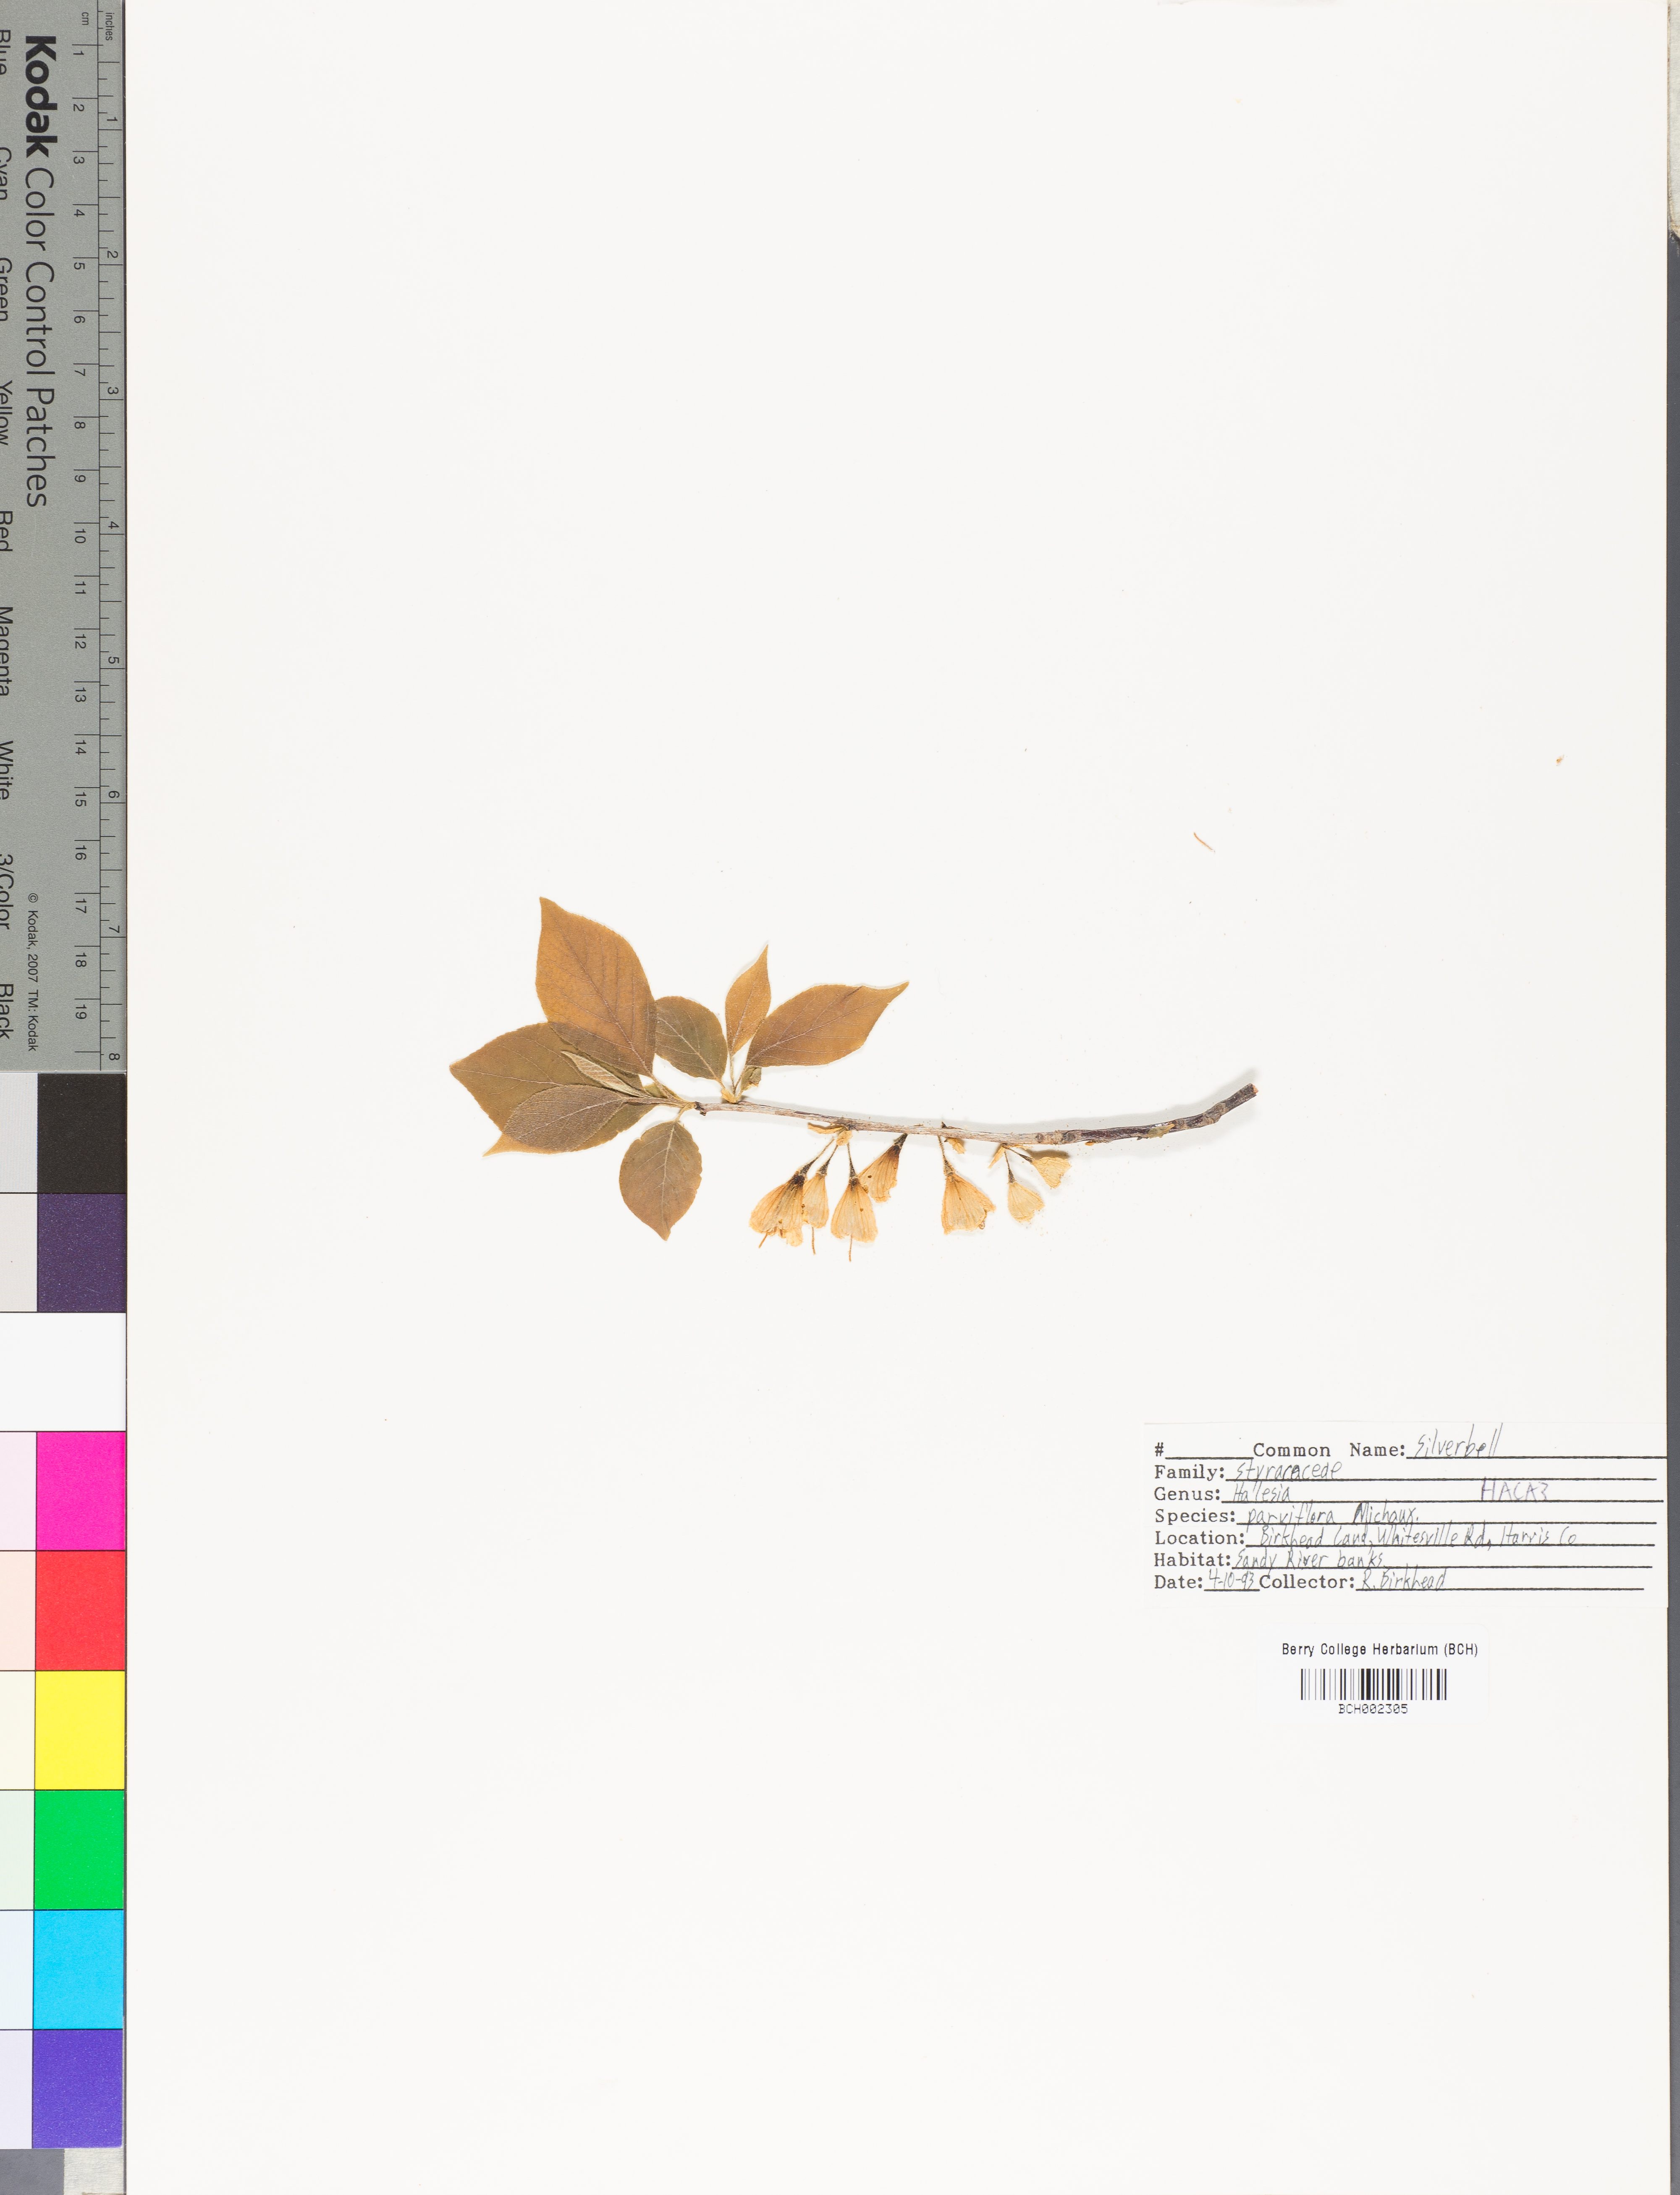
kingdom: Plantae
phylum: Tracheophyta
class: Magnoliopsida
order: Ericales
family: Styracaceae
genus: Halesia
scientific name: Halesia carolina
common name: Carolina silverbell
